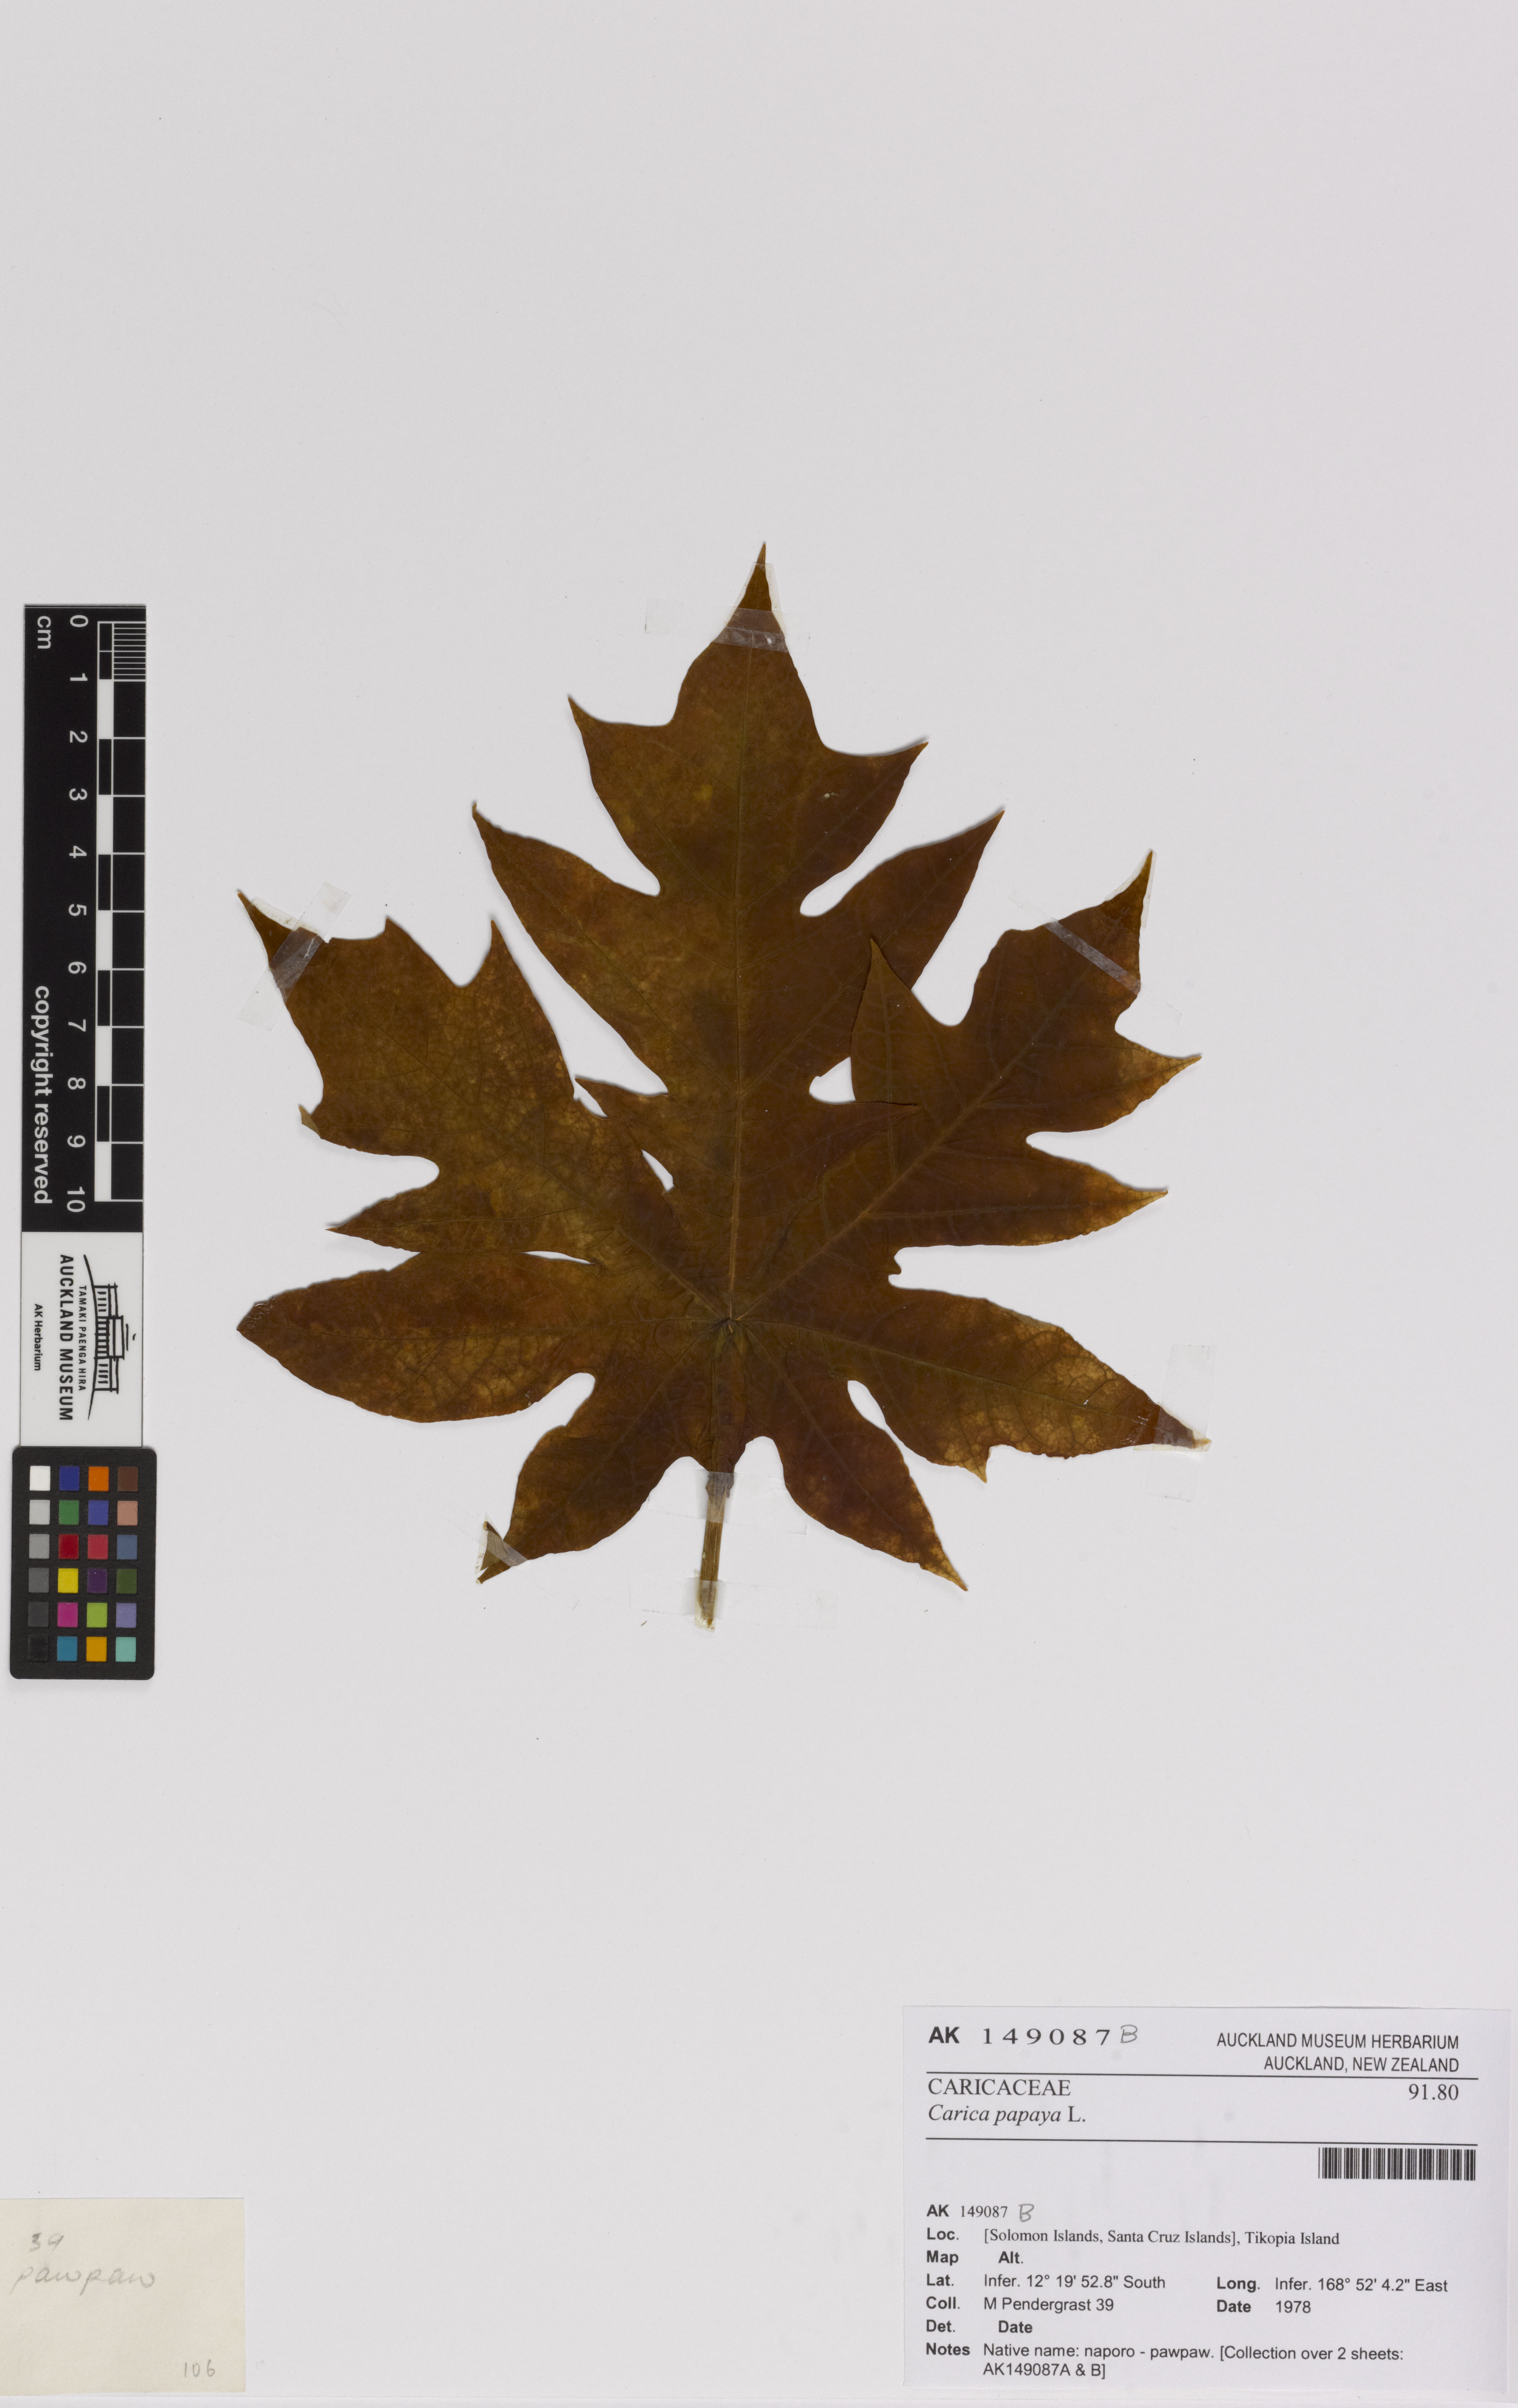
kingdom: Plantae
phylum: Tracheophyta
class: Magnoliopsida
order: Brassicales
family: Caricaceae
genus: Carica
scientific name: Carica papaya
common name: Papaya
